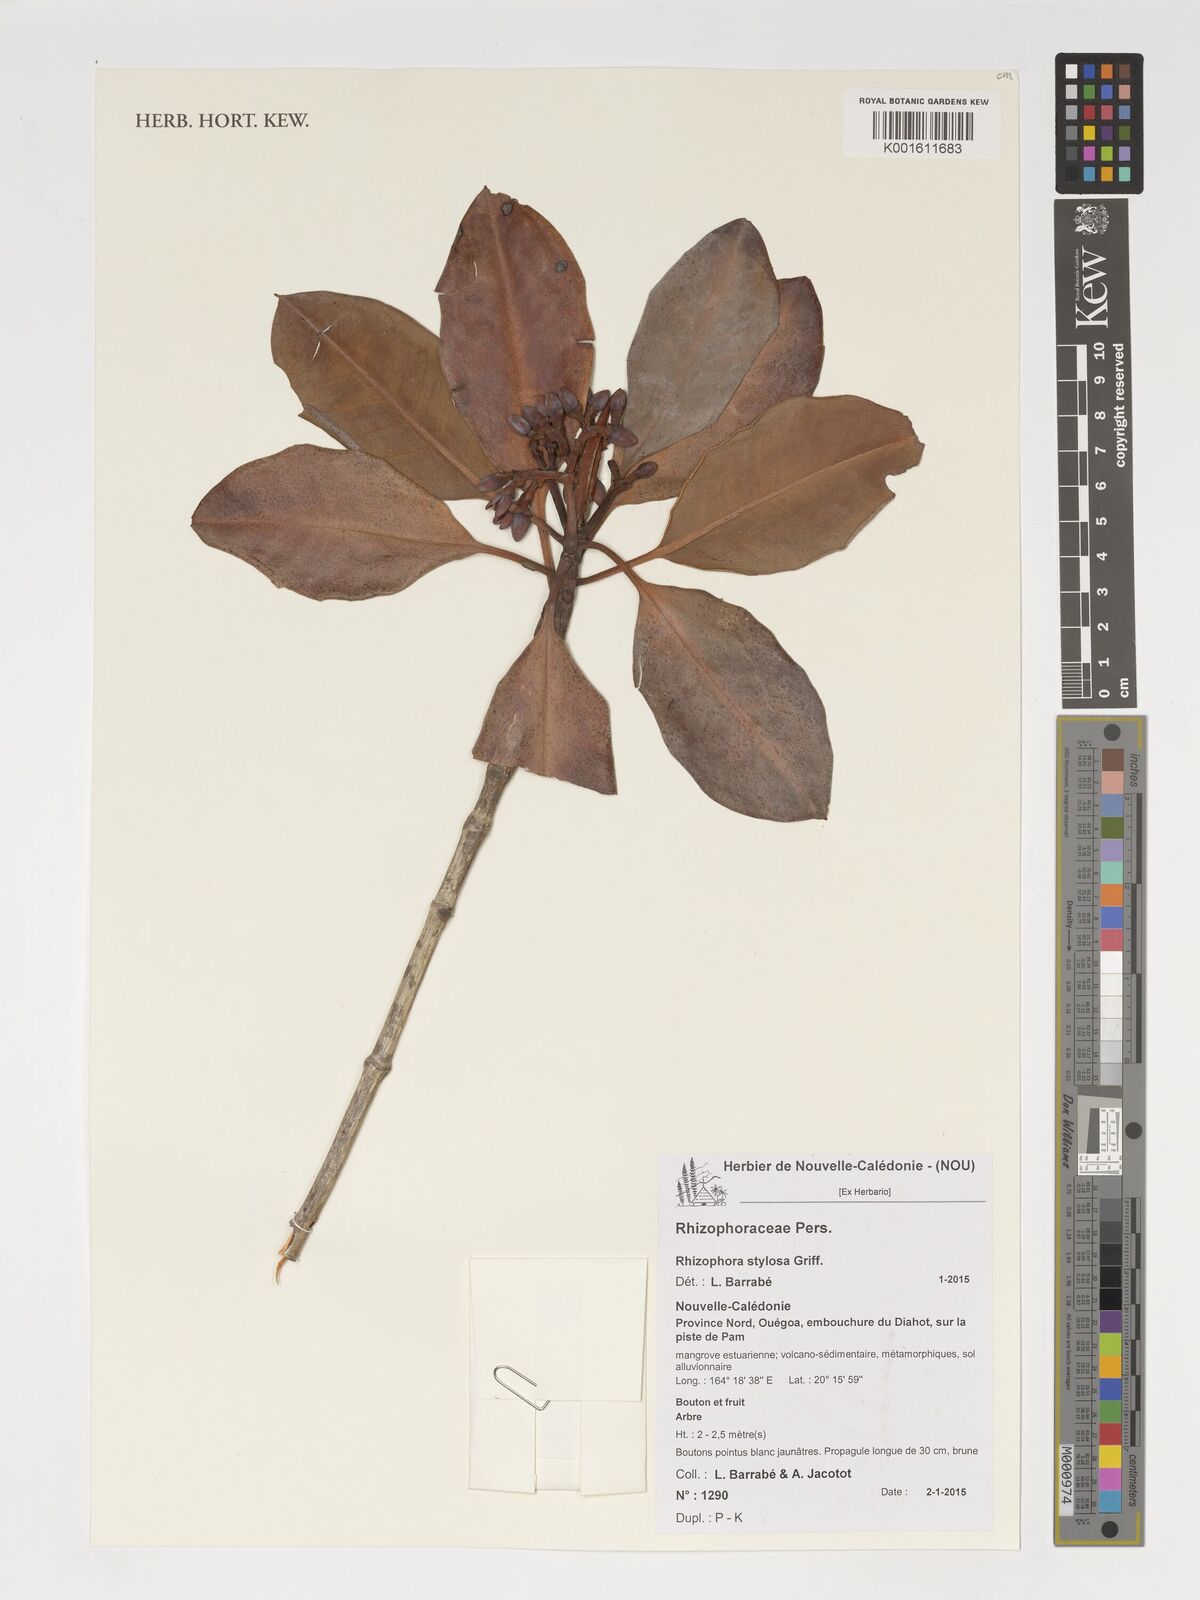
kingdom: Plantae
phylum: Tracheophyta
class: Magnoliopsida
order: Malpighiales
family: Rhizophoraceae
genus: Rhizophora
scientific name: Rhizophora stylosa
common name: Red mangrove
